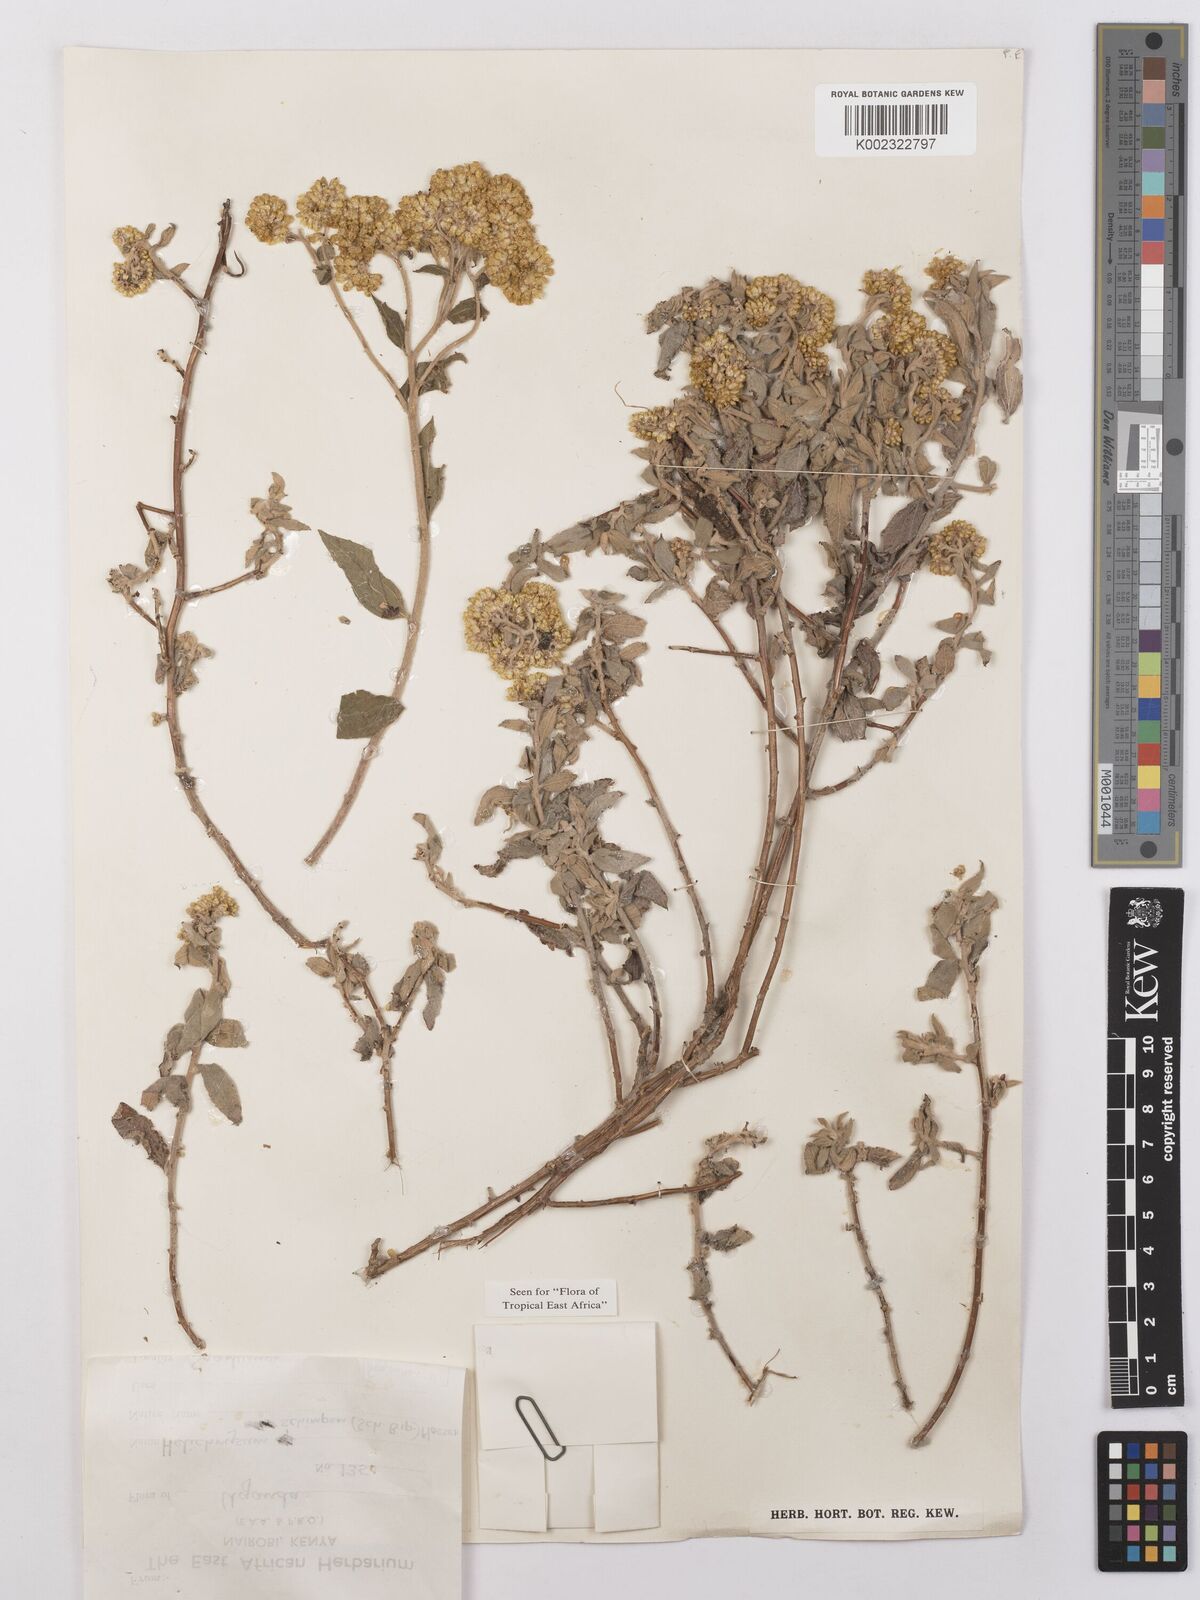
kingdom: Plantae
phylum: Tracheophyta
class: Magnoliopsida
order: Asterales
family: Asteraceae
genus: Helichrysum
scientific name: Helichrysum schimperi
